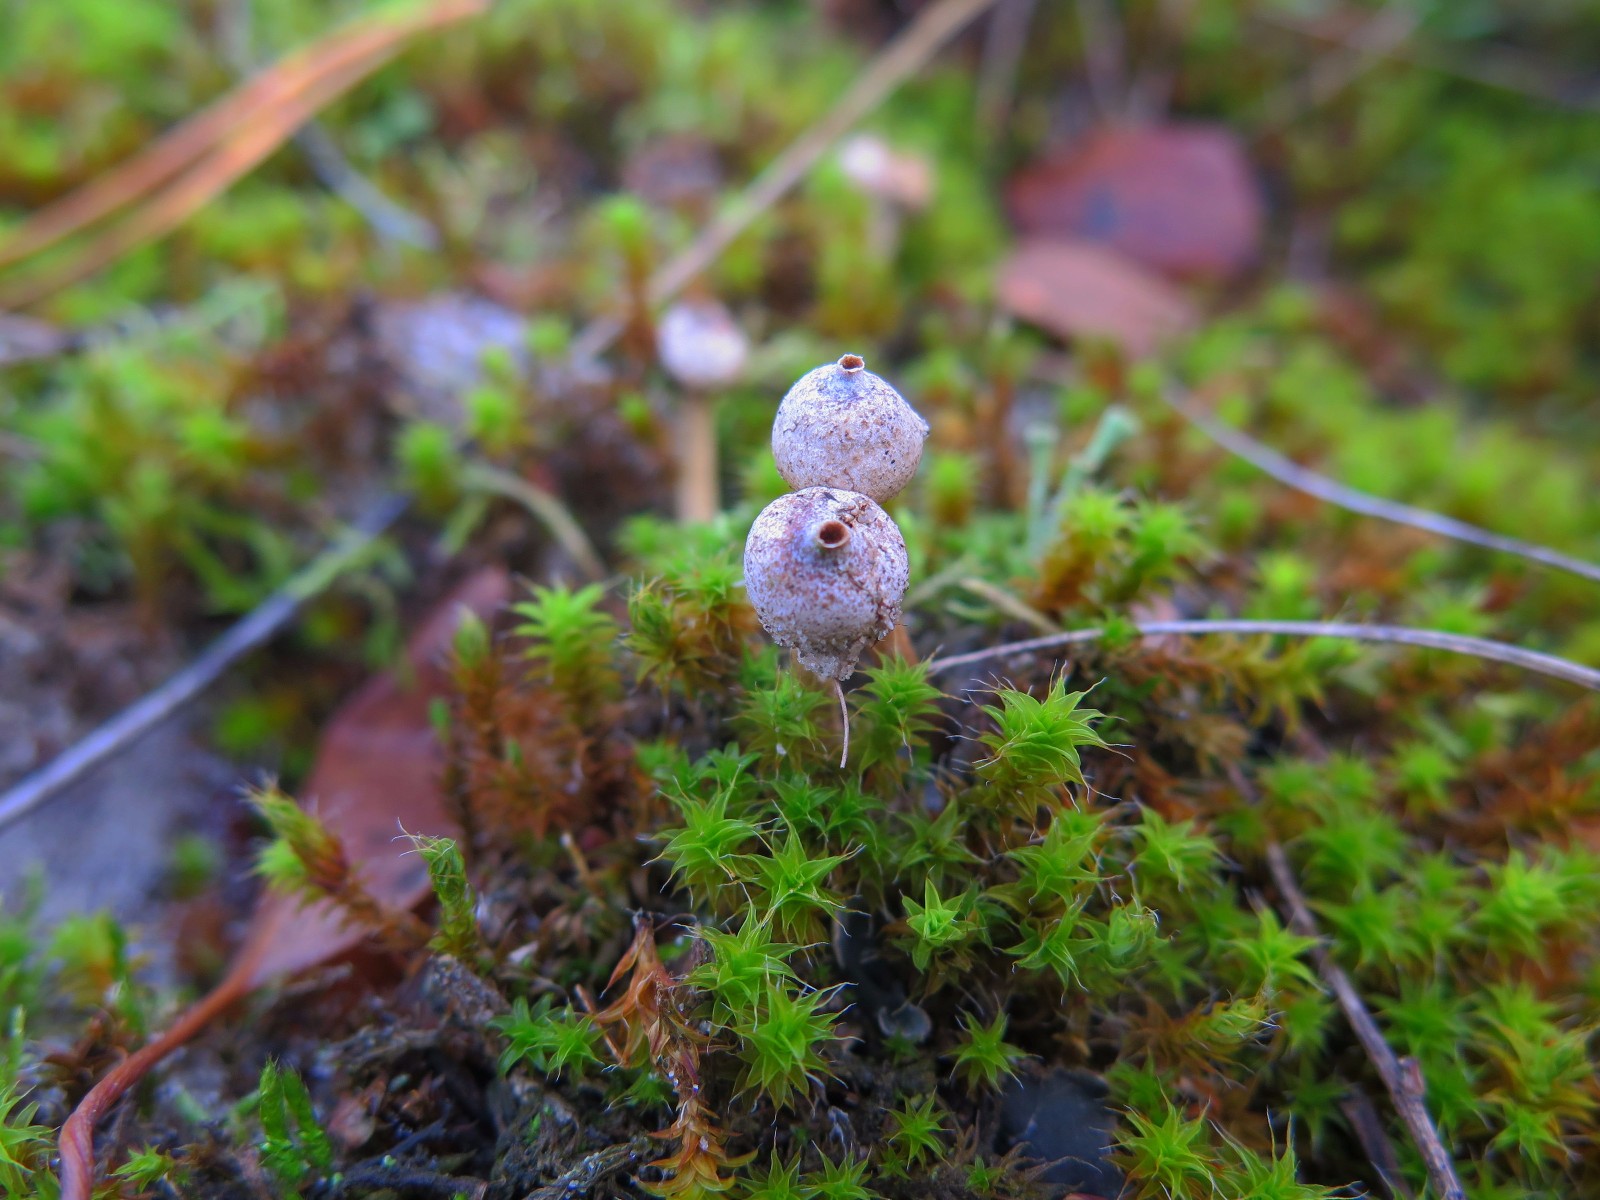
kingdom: Fungi
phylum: Basidiomycota
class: Agaricomycetes
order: Agaricales
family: Agaricaceae
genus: Tulostoma
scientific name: Tulostoma brumale
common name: vinter-stilkbovist
